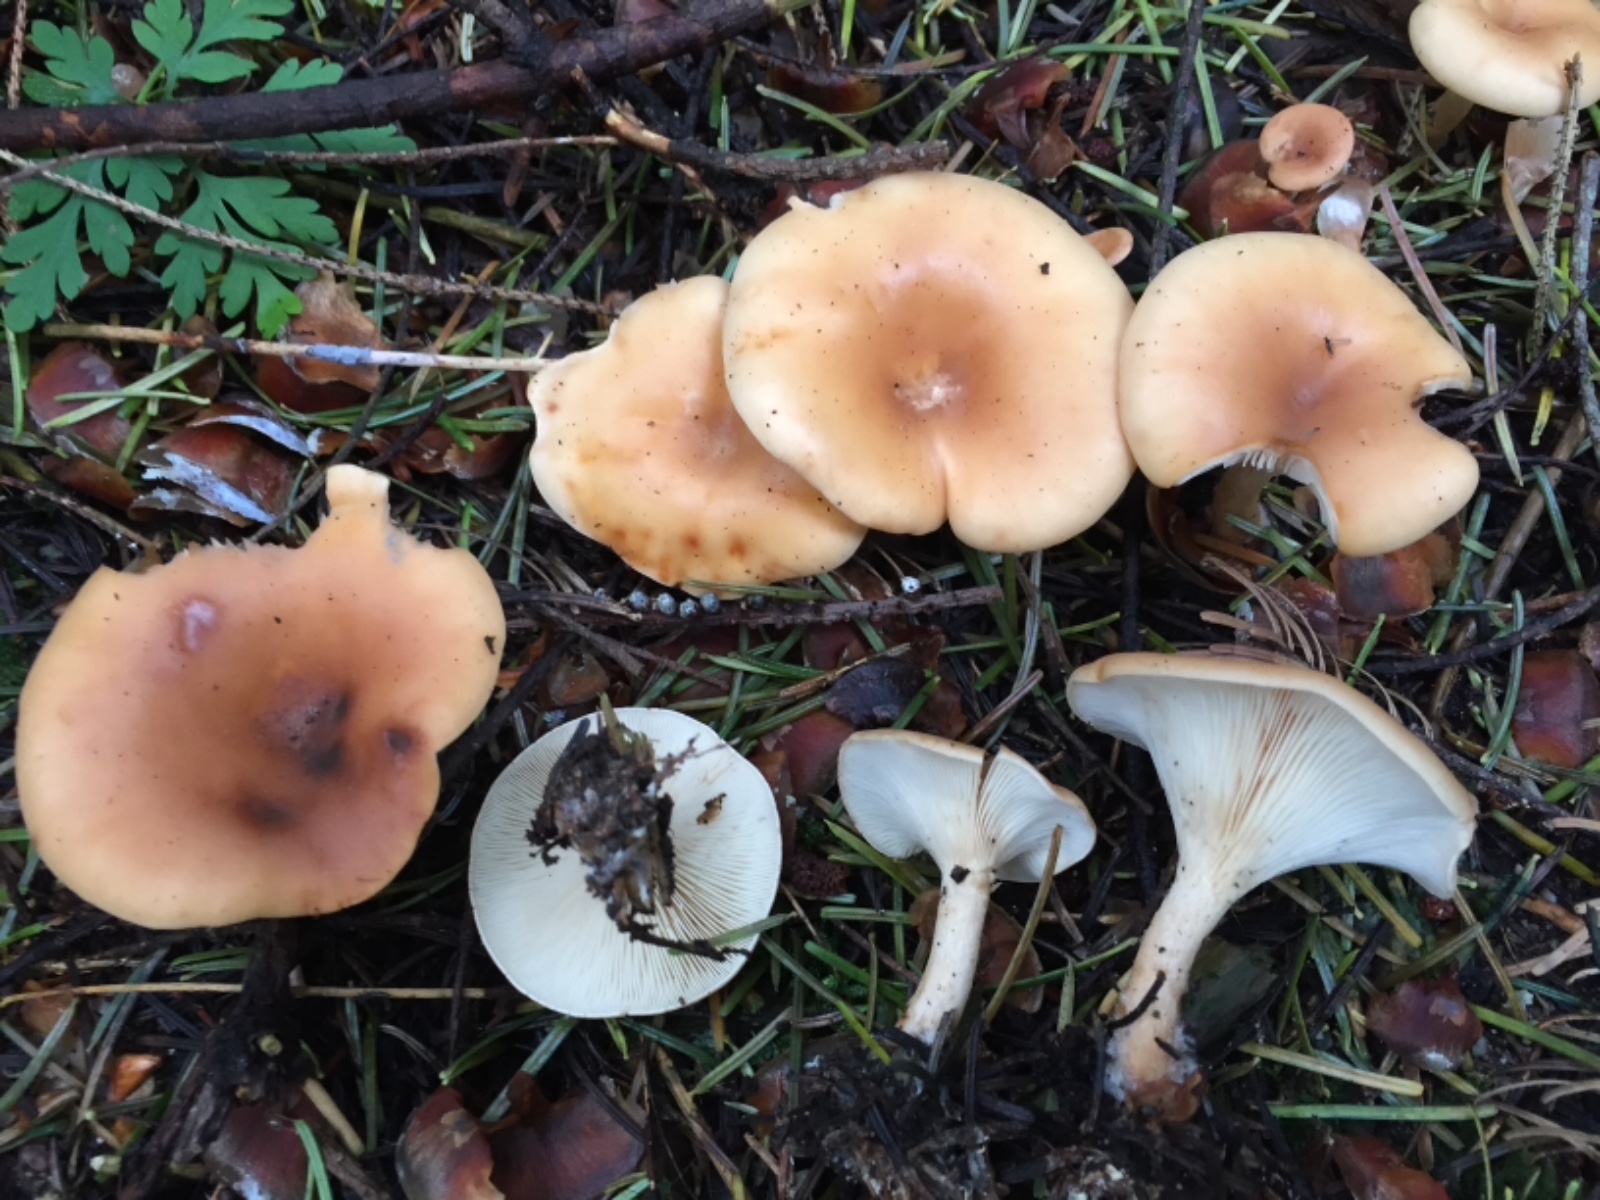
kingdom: Fungi
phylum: Basidiomycota
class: Agaricomycetes
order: Agaricales
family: Tricholomataceae
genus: Paralepista
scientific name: Paralepista flaccida
